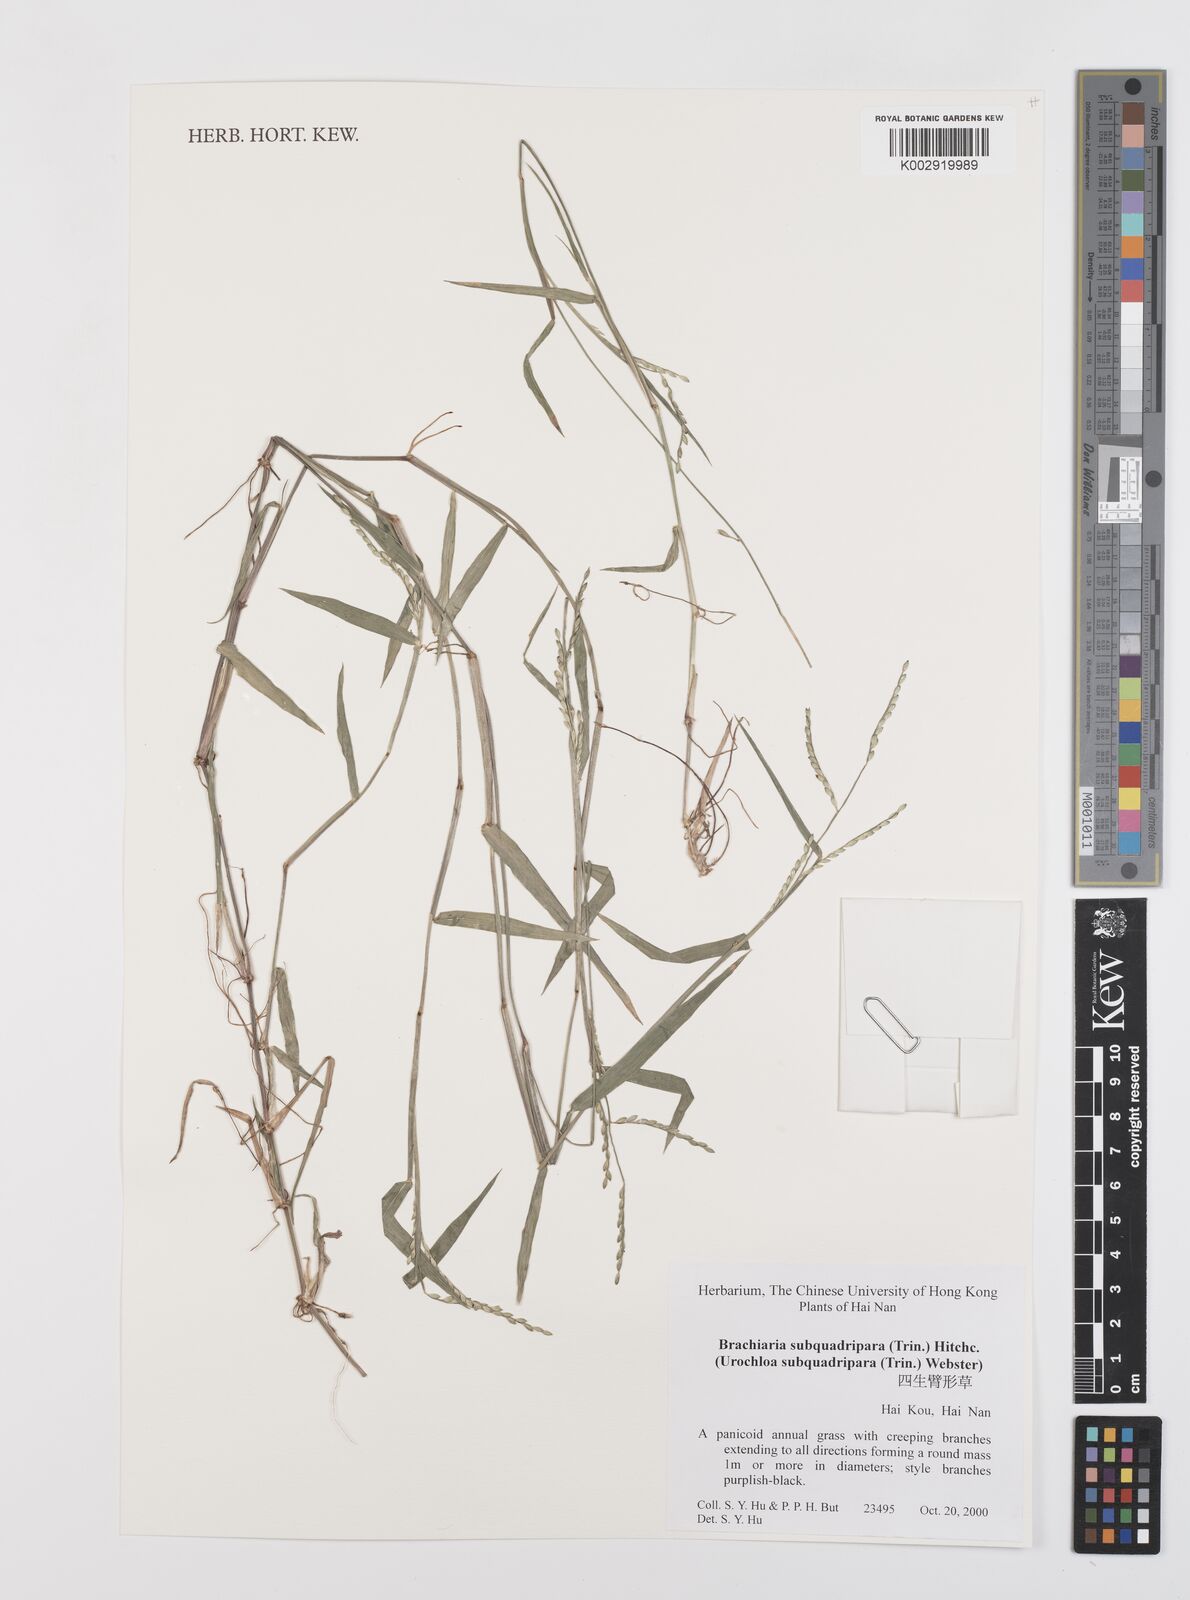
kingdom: Plantae
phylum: Tracheophyta
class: Liliopsida
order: Poales
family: Poaceae
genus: Urochloa
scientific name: Urochloa subquadripara
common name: Armgrass millet
